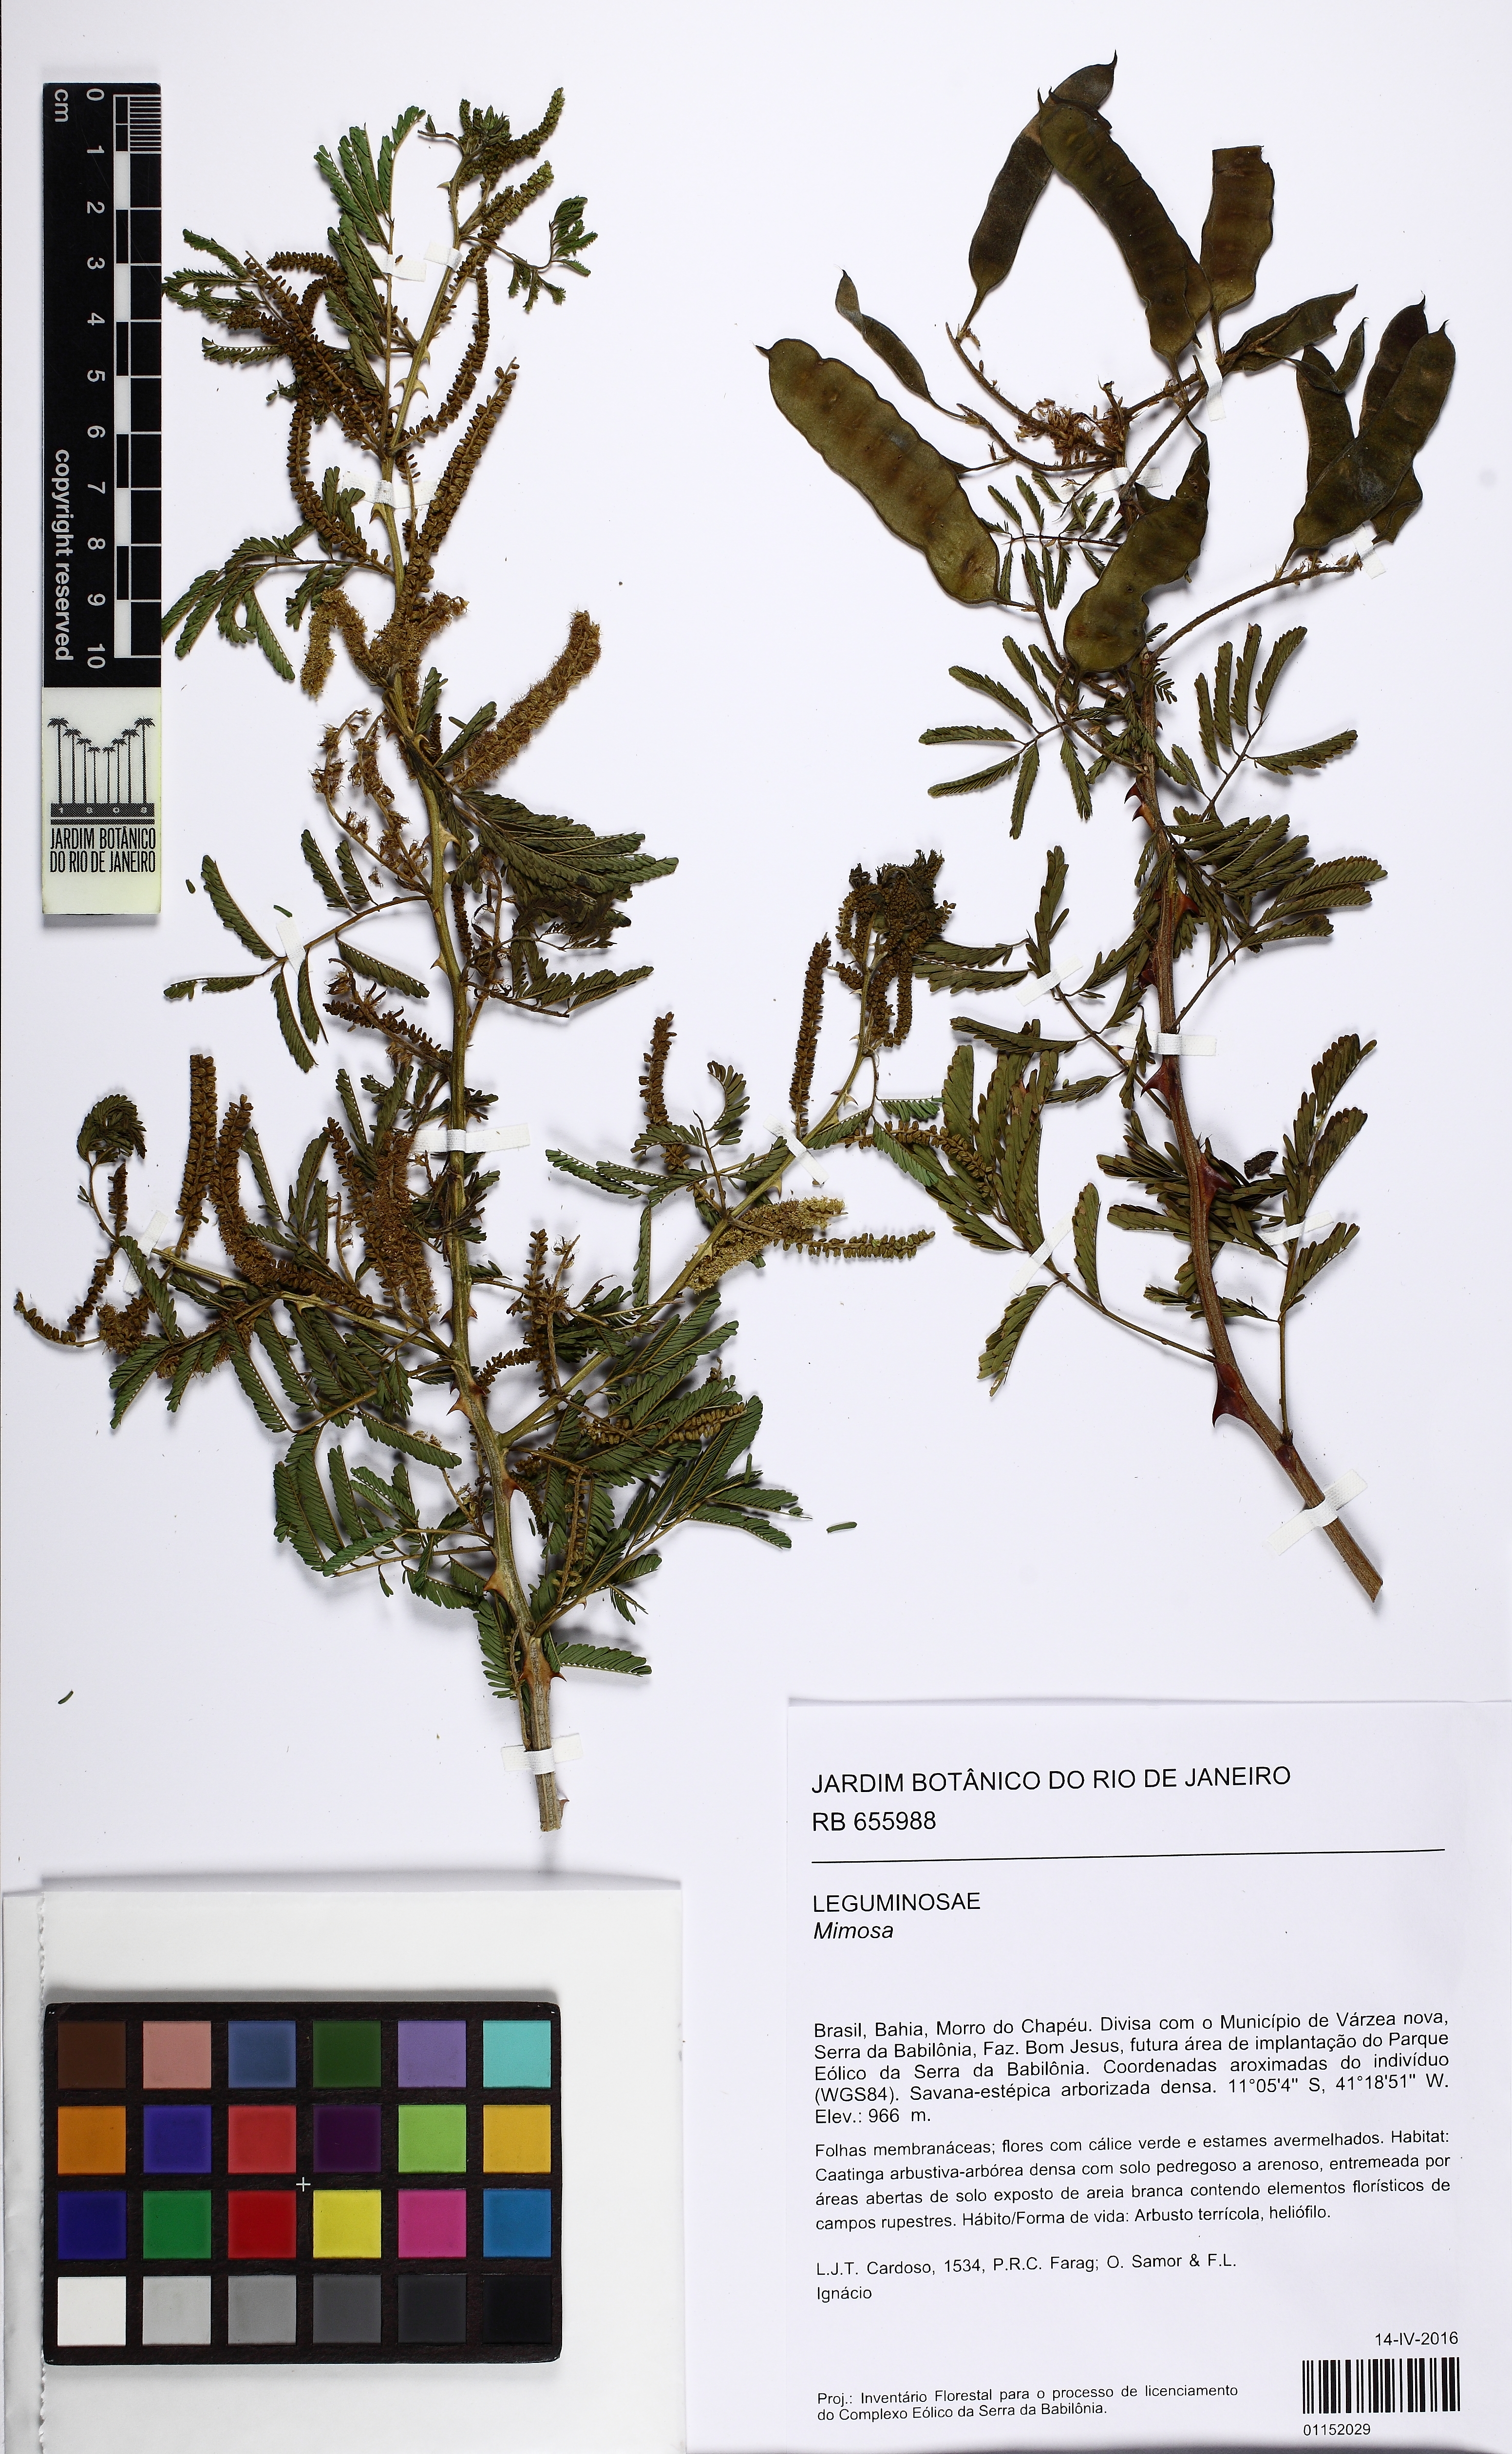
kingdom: Plantae
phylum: Tracheophyta
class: Magnoliopsida
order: Fabales
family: Fabaceae
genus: Mimosa
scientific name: Mimosa
